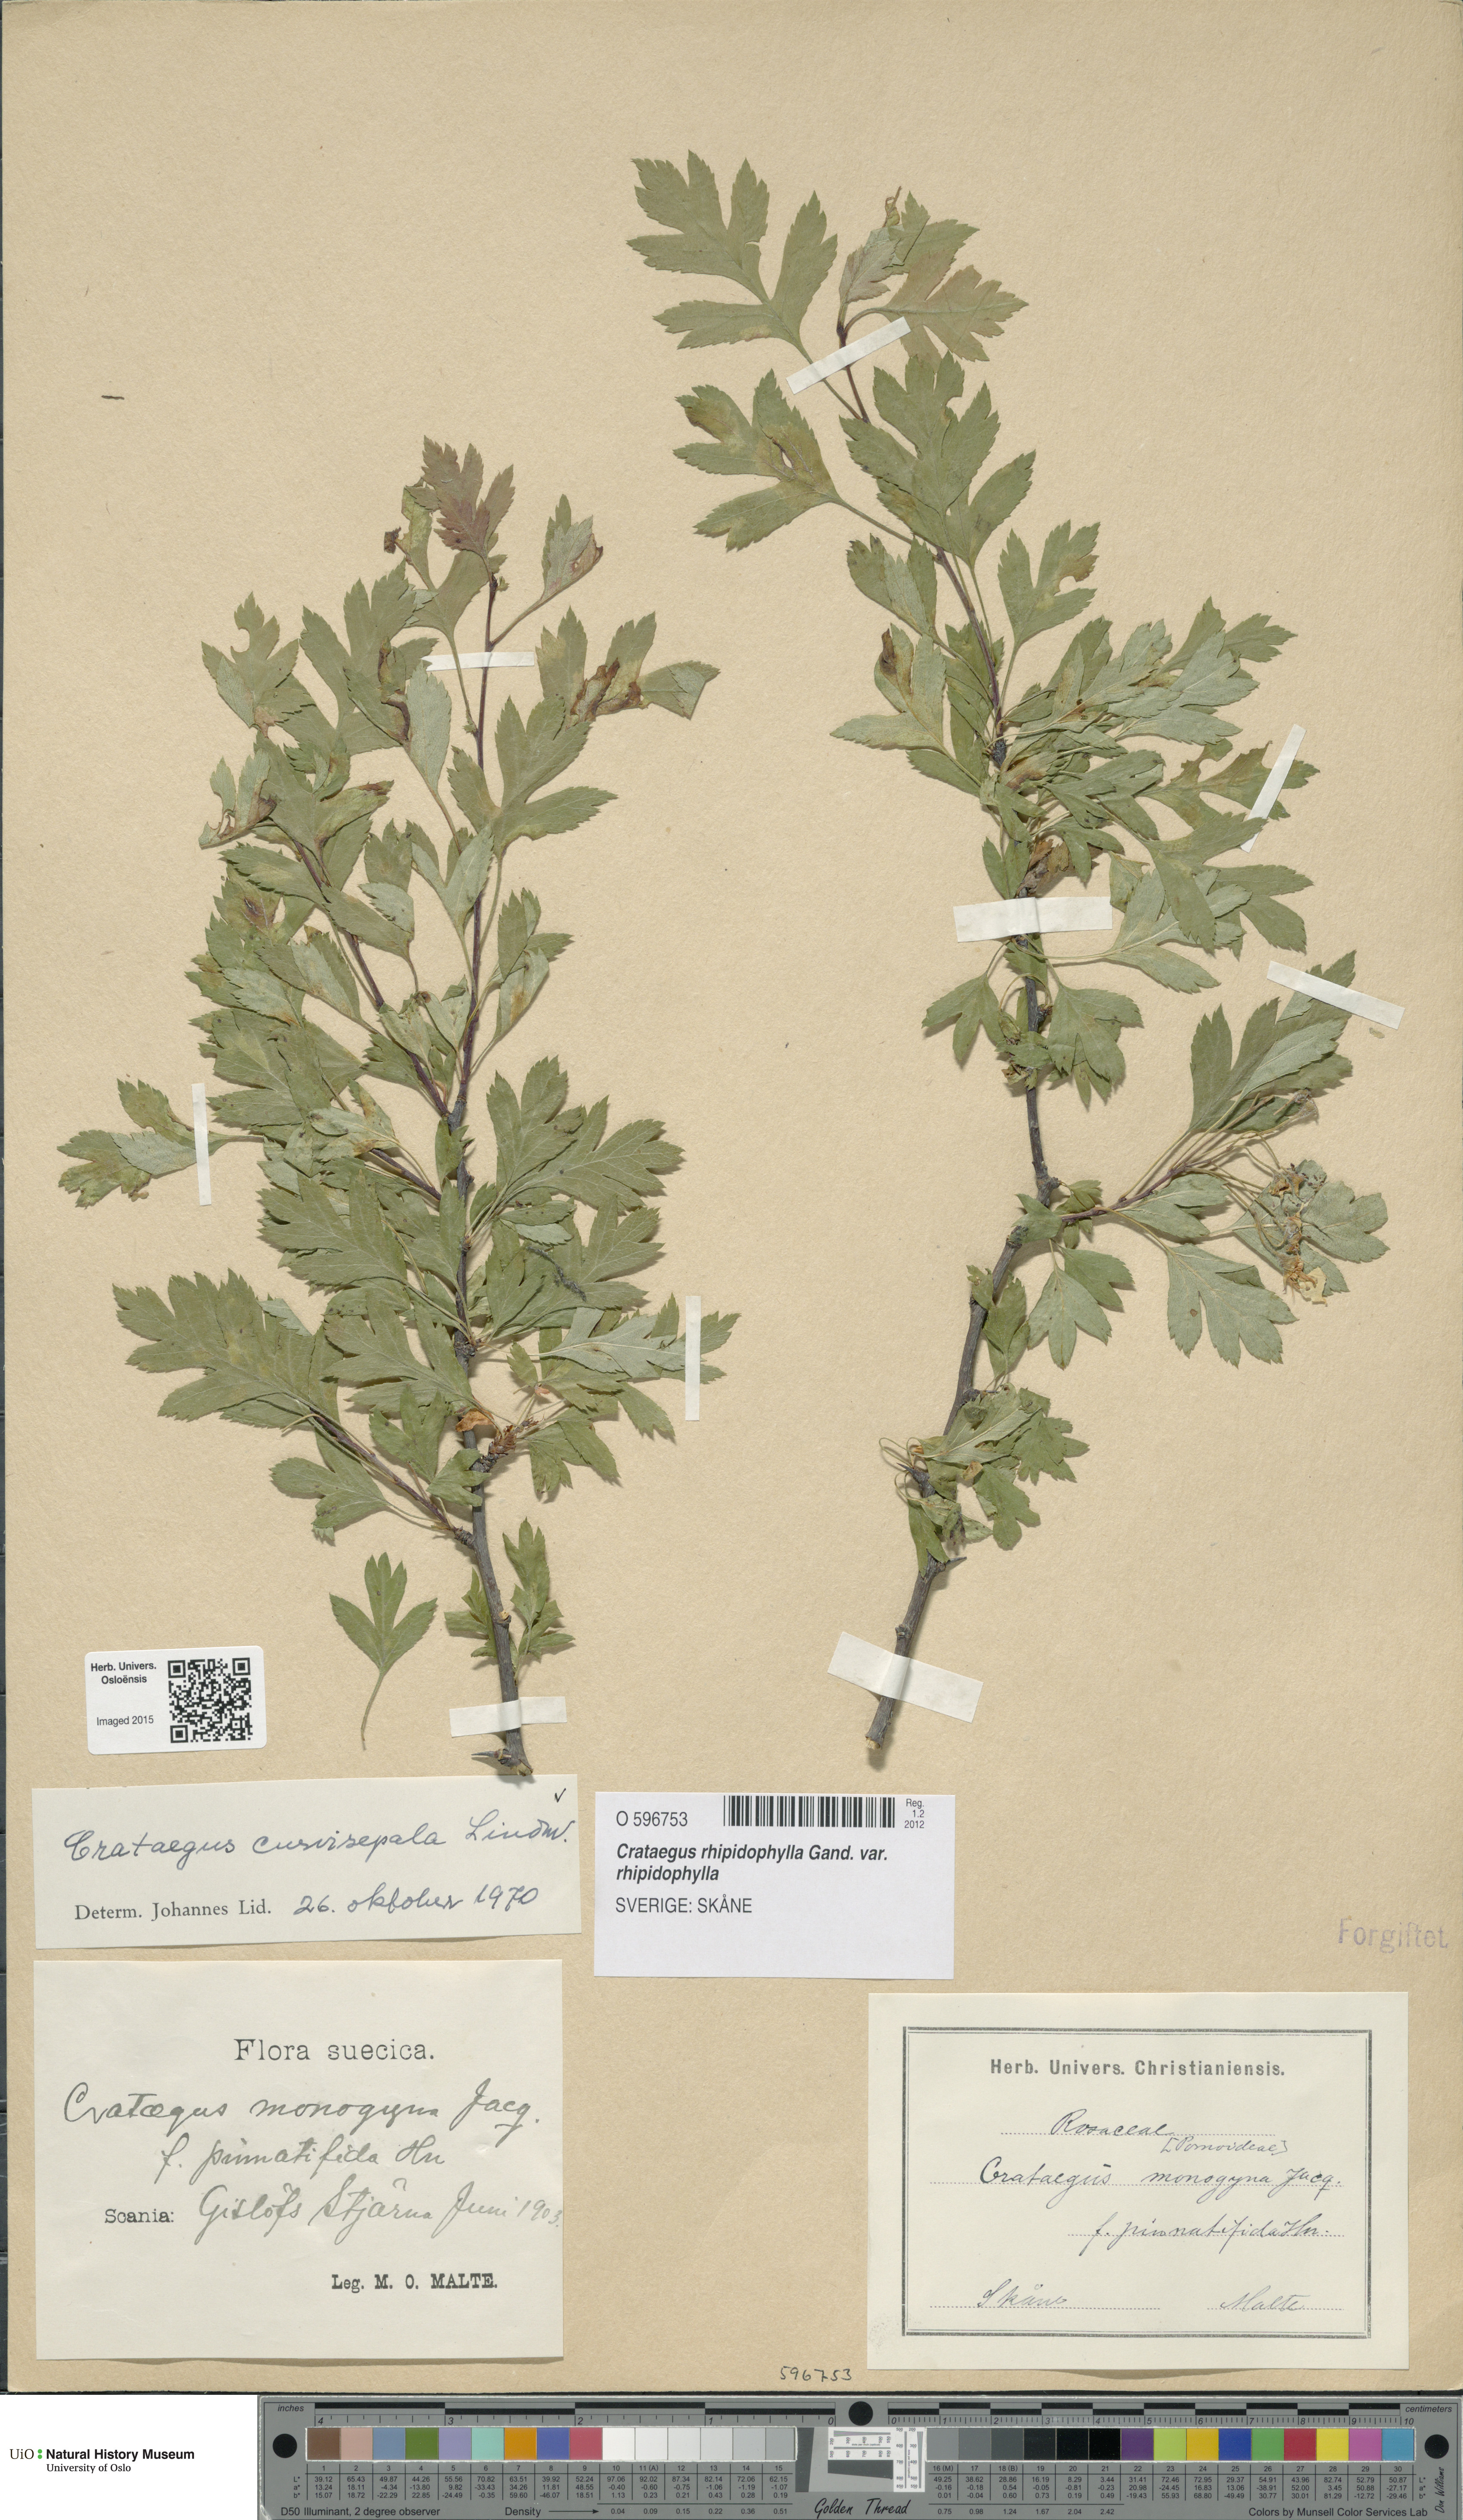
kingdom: Plantae
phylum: Tracheophyta
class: Magnoliopsida
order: Rosales
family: Rosaceae
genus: Crataegus
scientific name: Crataegus rhipidophylla
